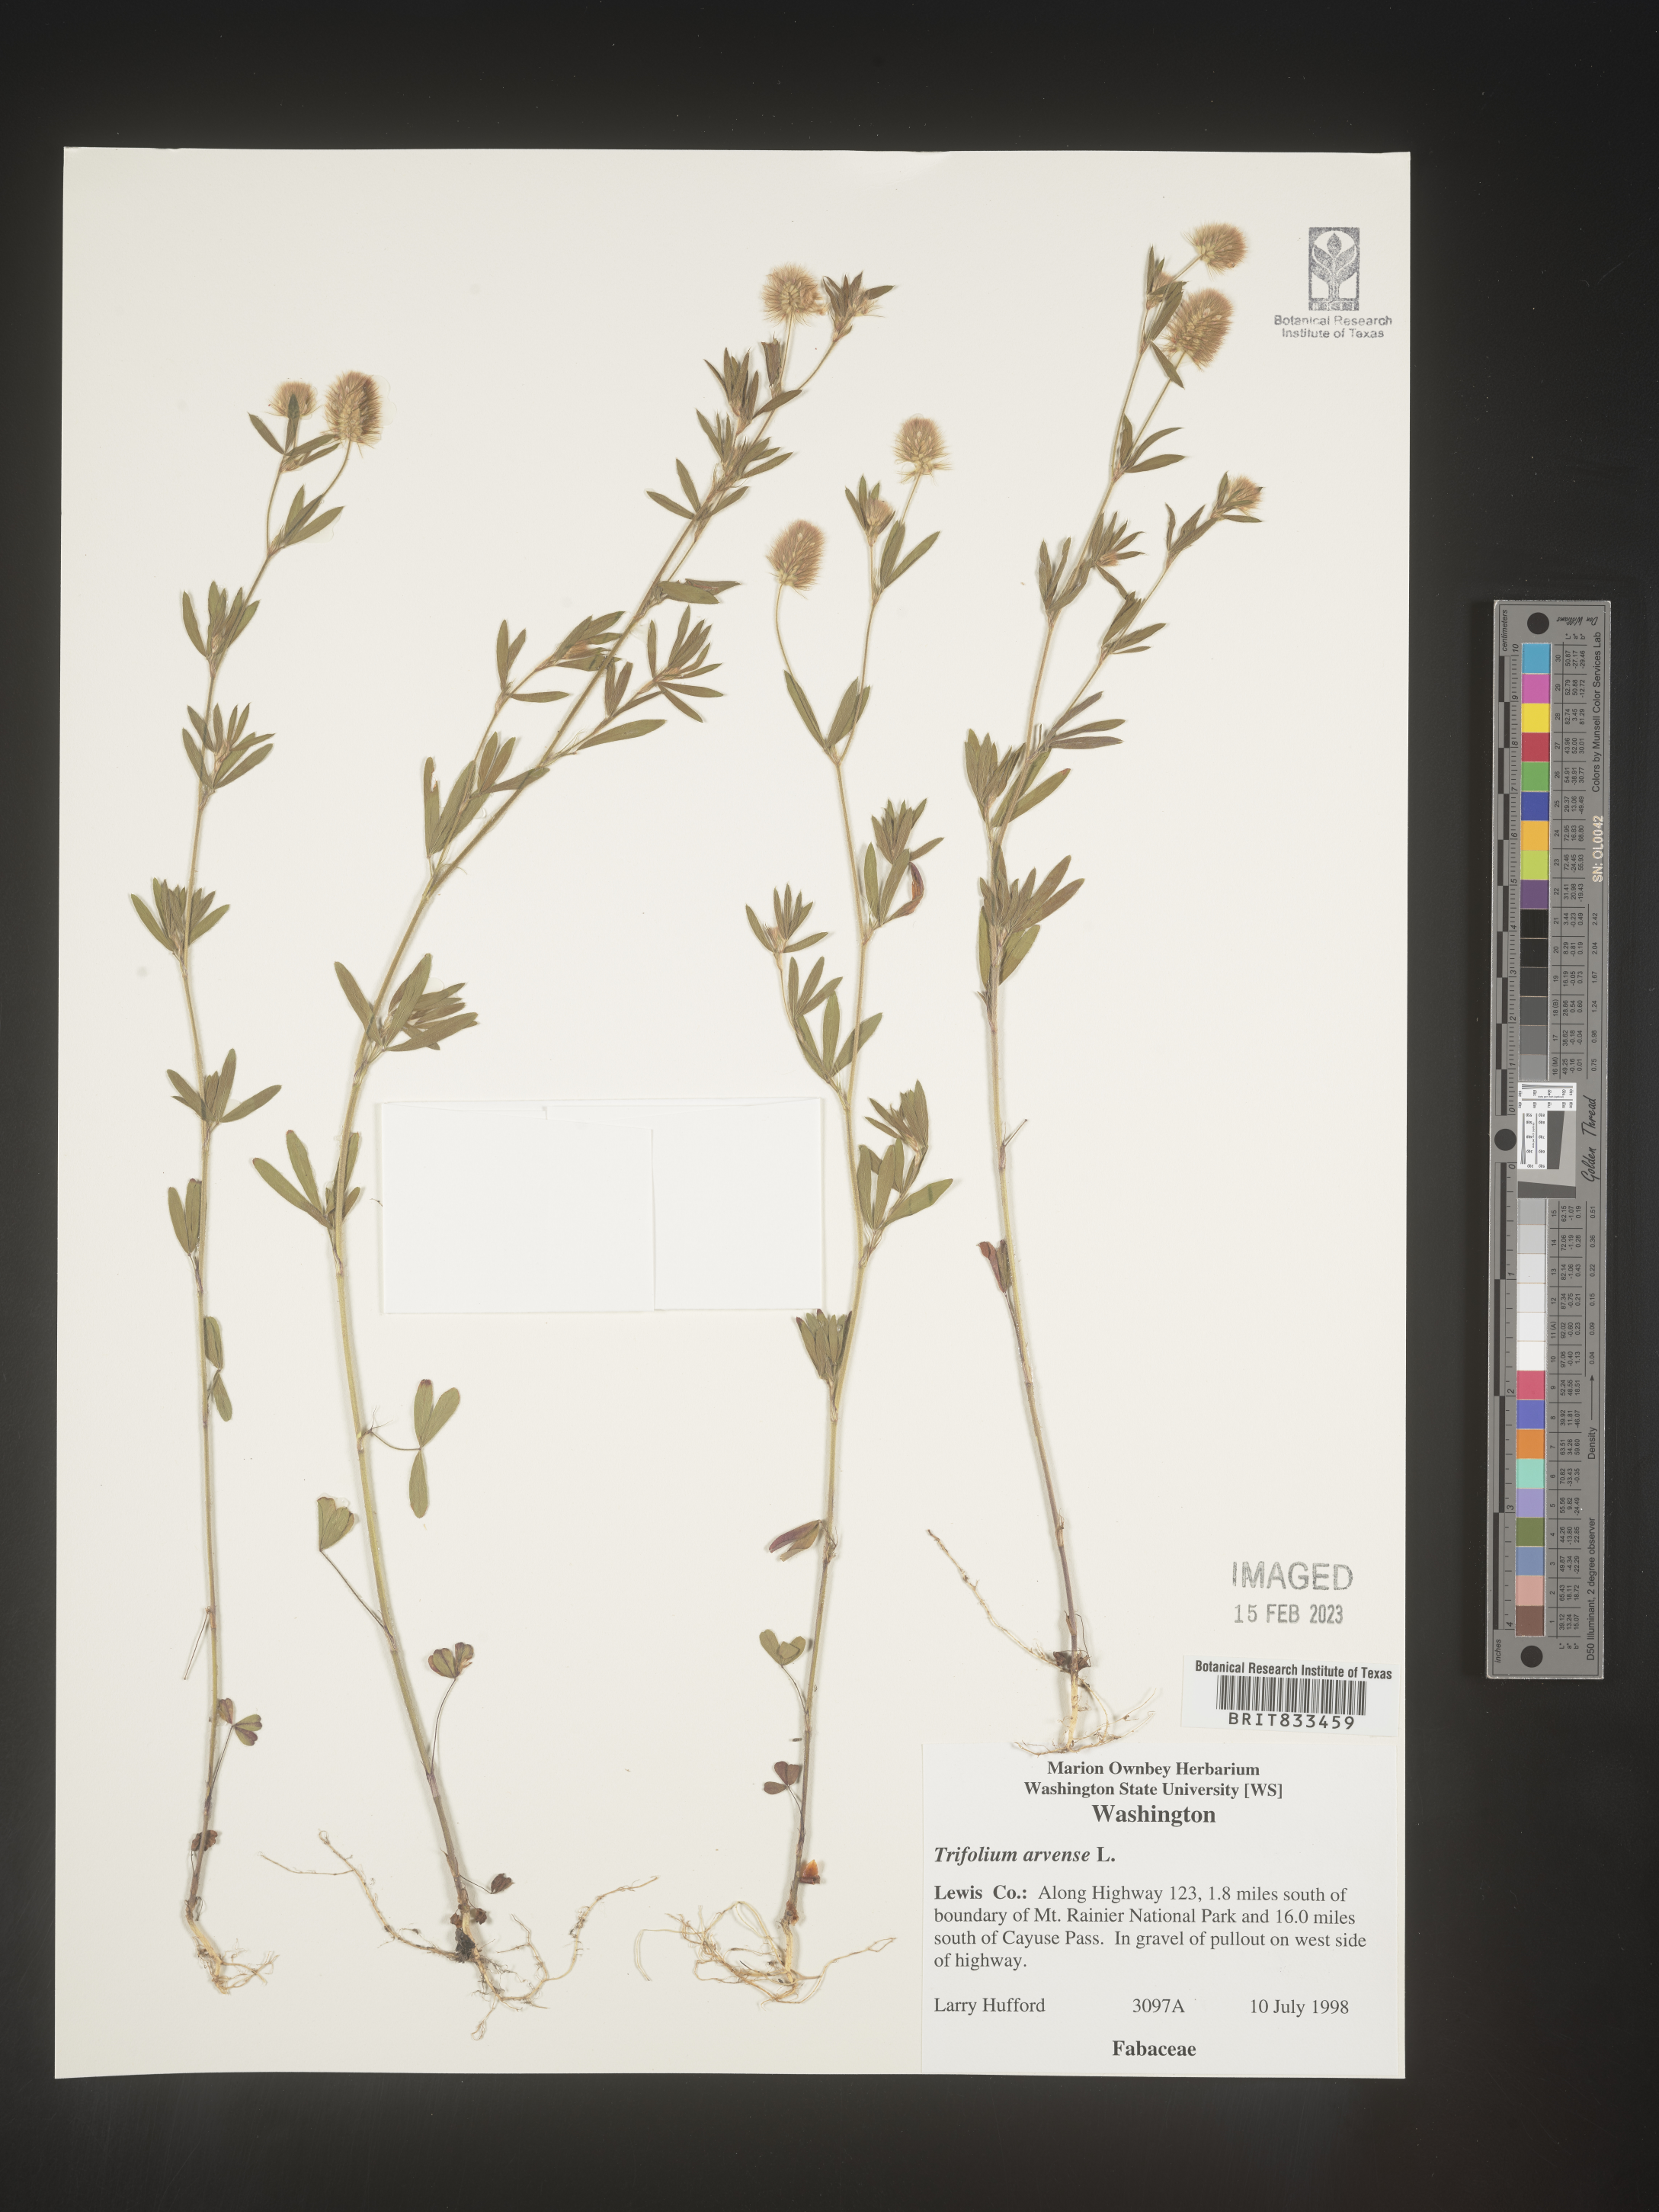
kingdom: Plantae
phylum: Tracheophyta
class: Magnoliopsida
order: Fabales
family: Fabaceae
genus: Trifolium
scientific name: Trifolium arvense
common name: Hare's-foot clover
